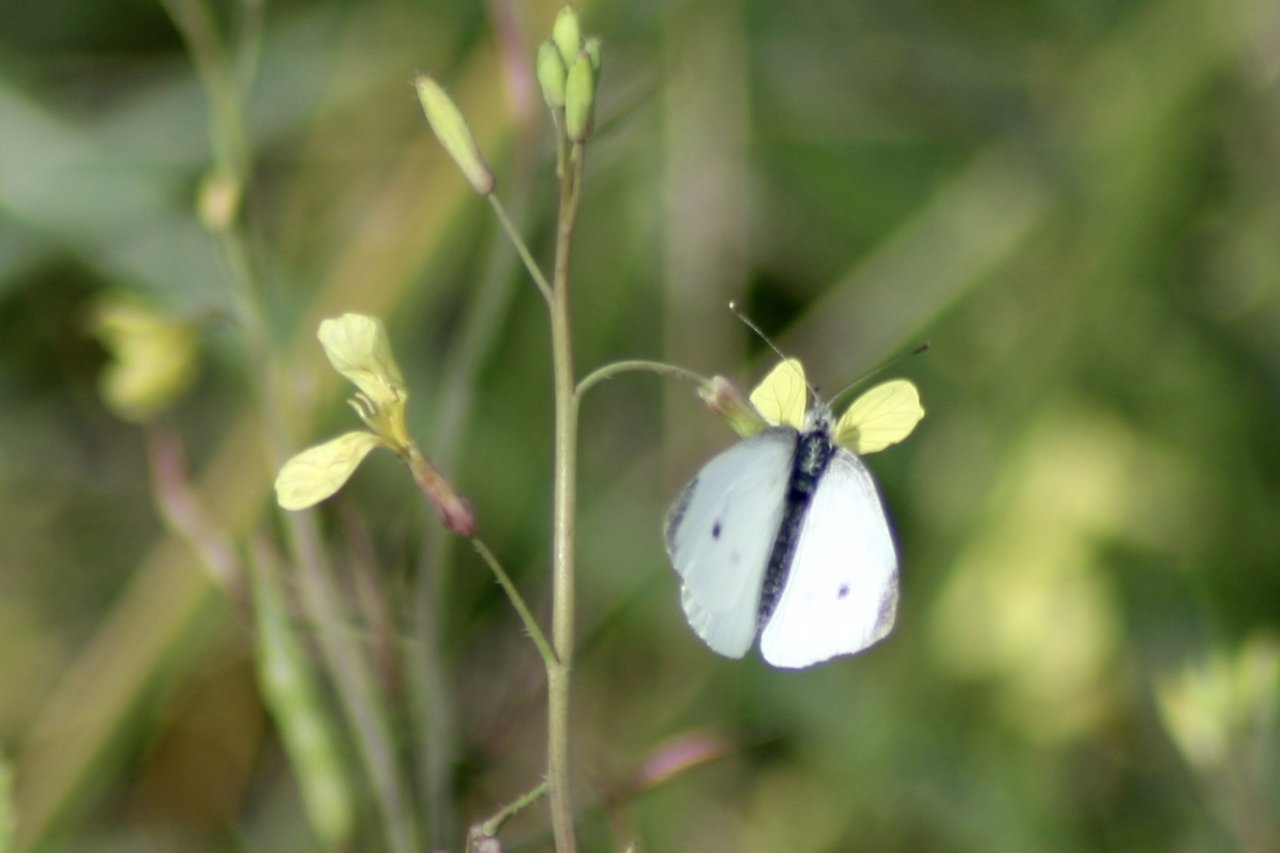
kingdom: Animalia
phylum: Arthropoda
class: Insecta
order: Lepidoptera
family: Pieridae
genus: Pieris
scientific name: Pieris rapae
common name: Cabbage White
